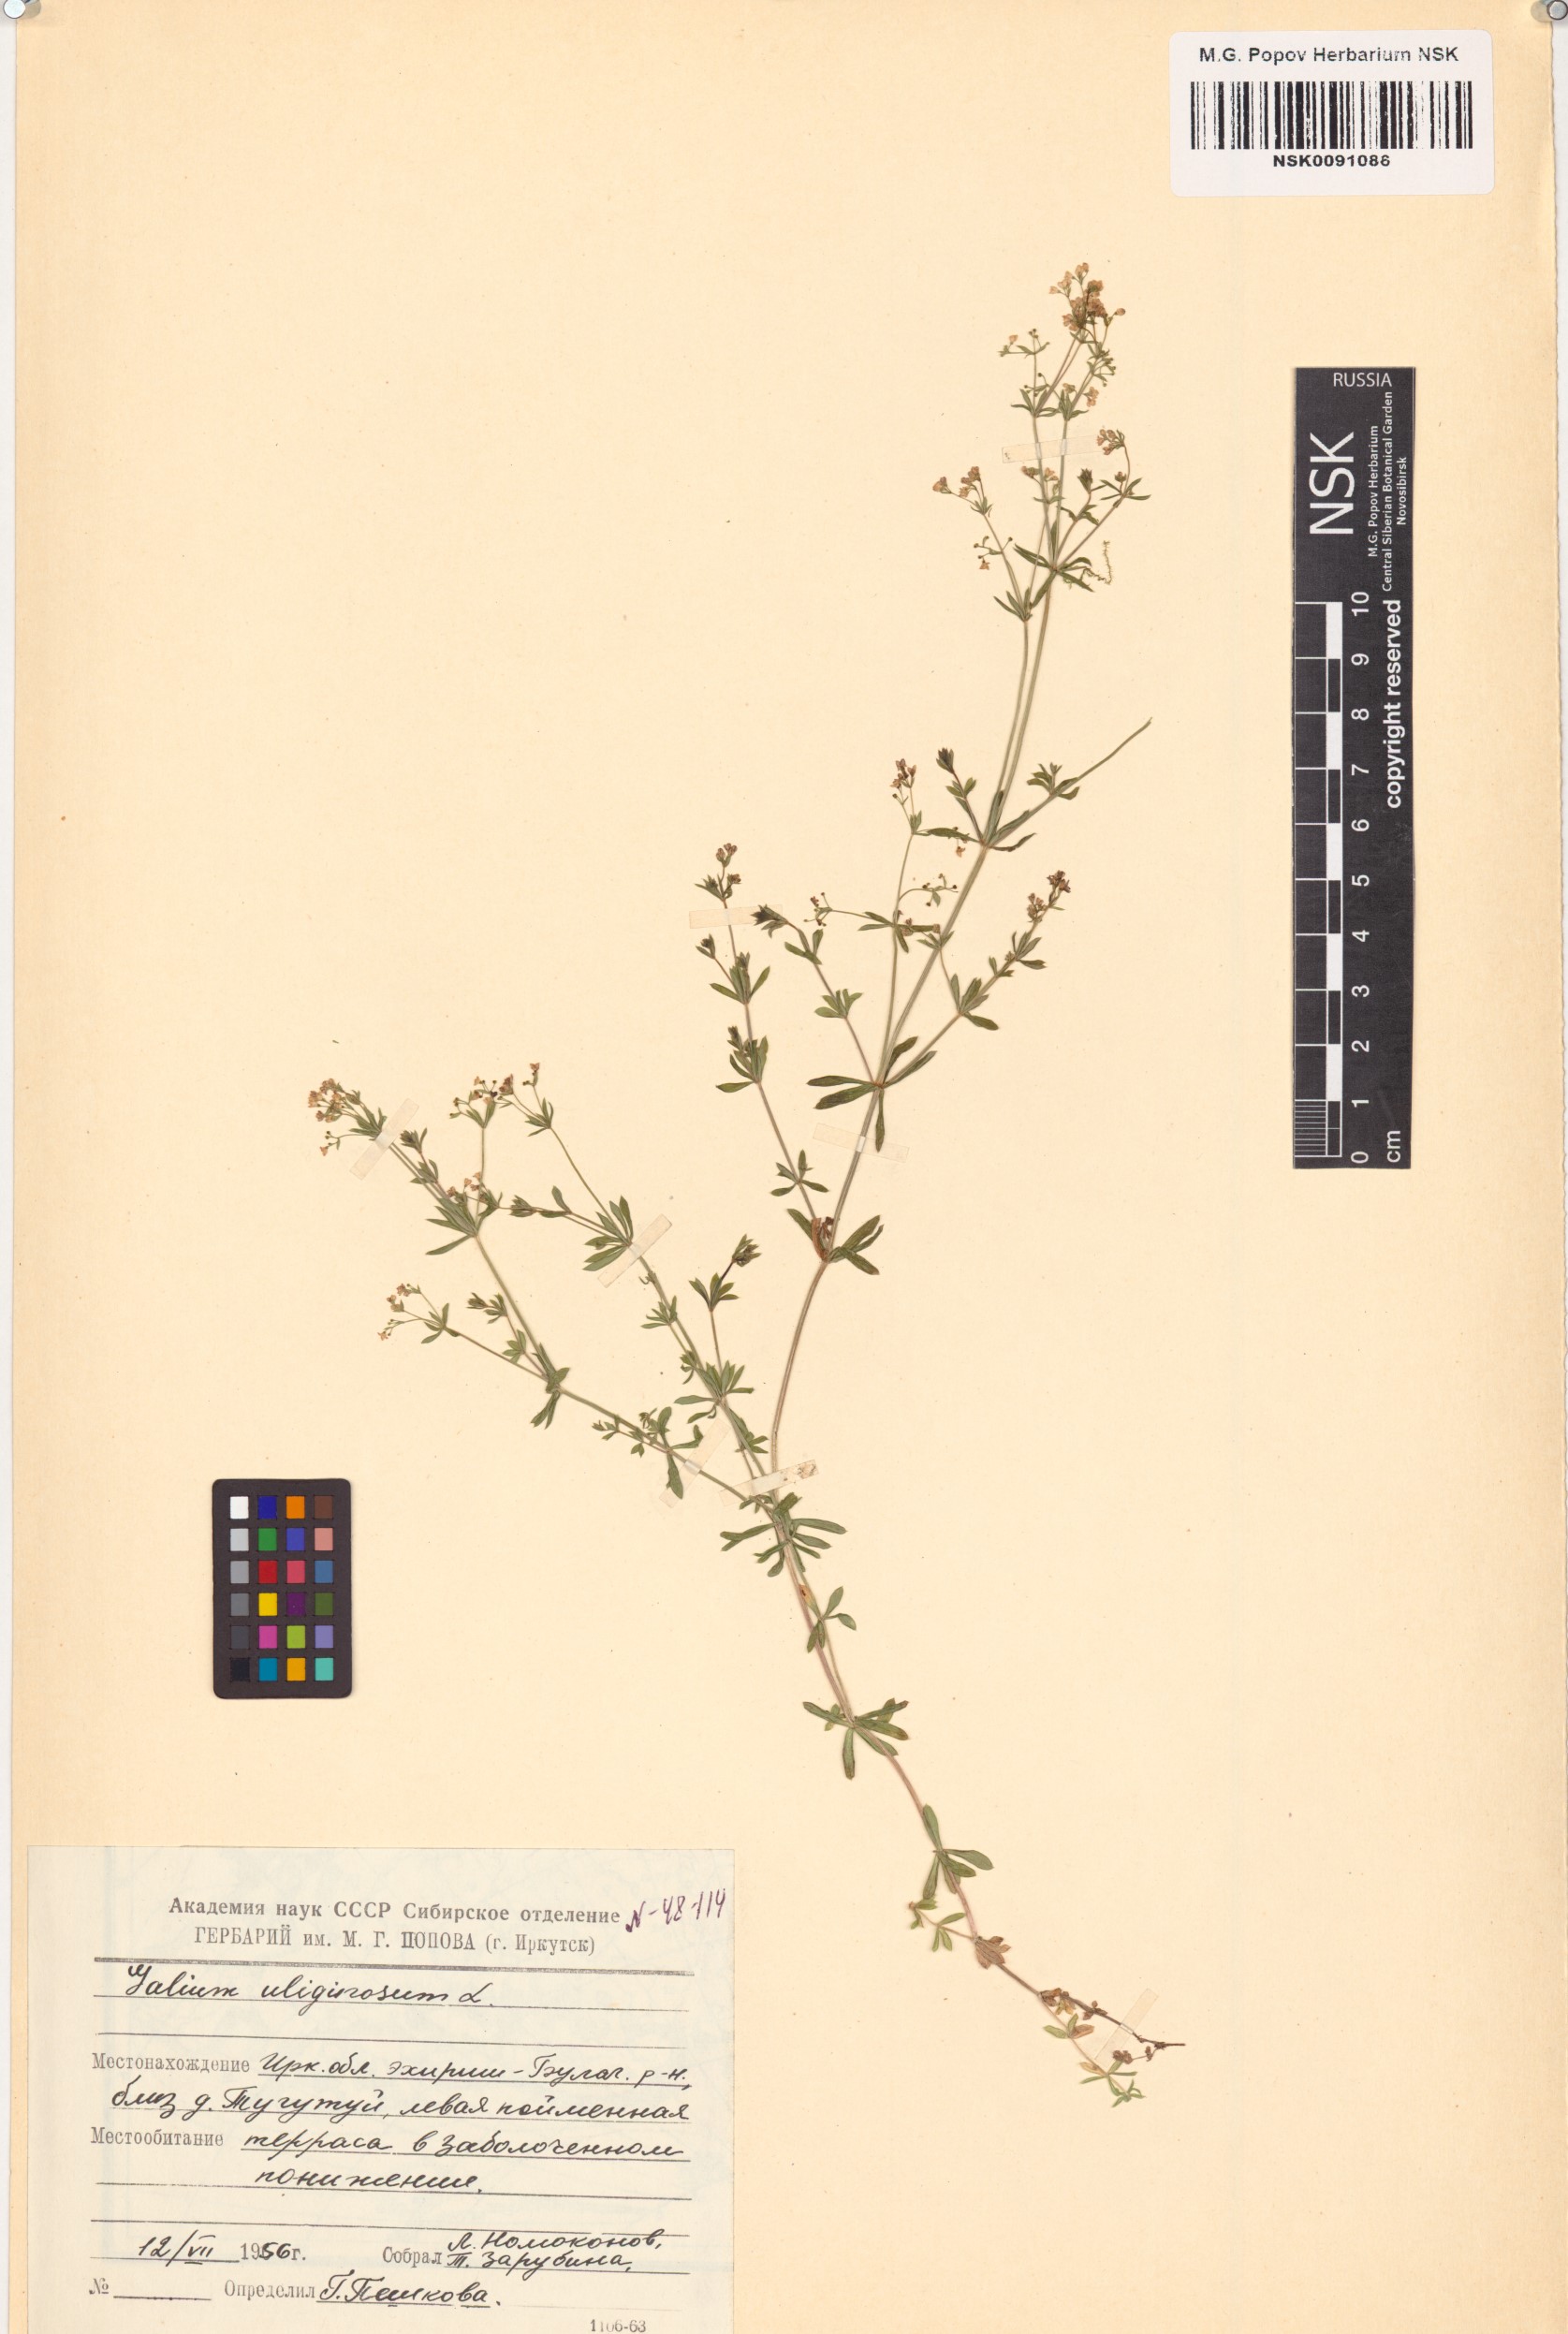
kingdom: Plantae
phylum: Tracheophyta
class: Magnoliopsida
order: Gentianales
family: Rubiaceae
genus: Galium
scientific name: Galium uliginosum
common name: Fen bedstraw
